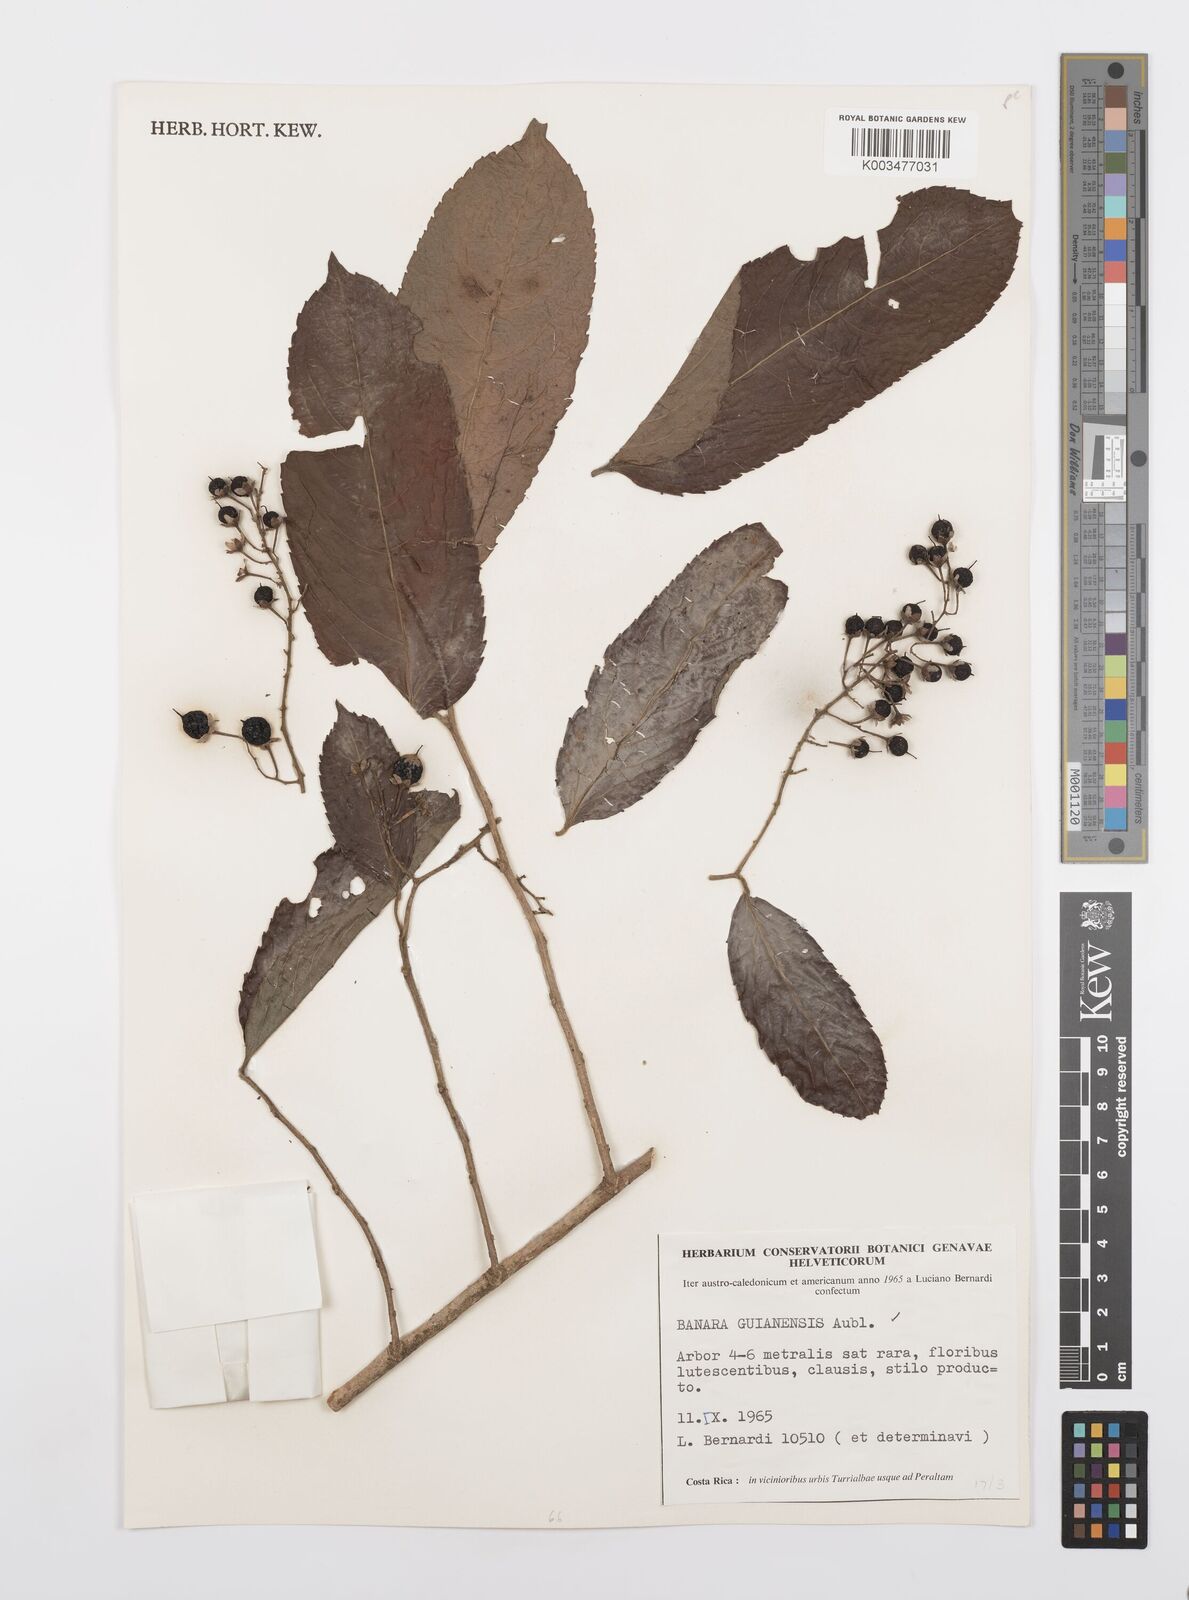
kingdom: Plantae
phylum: Tracheophyta
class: Magnoliopsida
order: Malpighiales
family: Salicaceae
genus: Banara
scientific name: Banara guianensis
